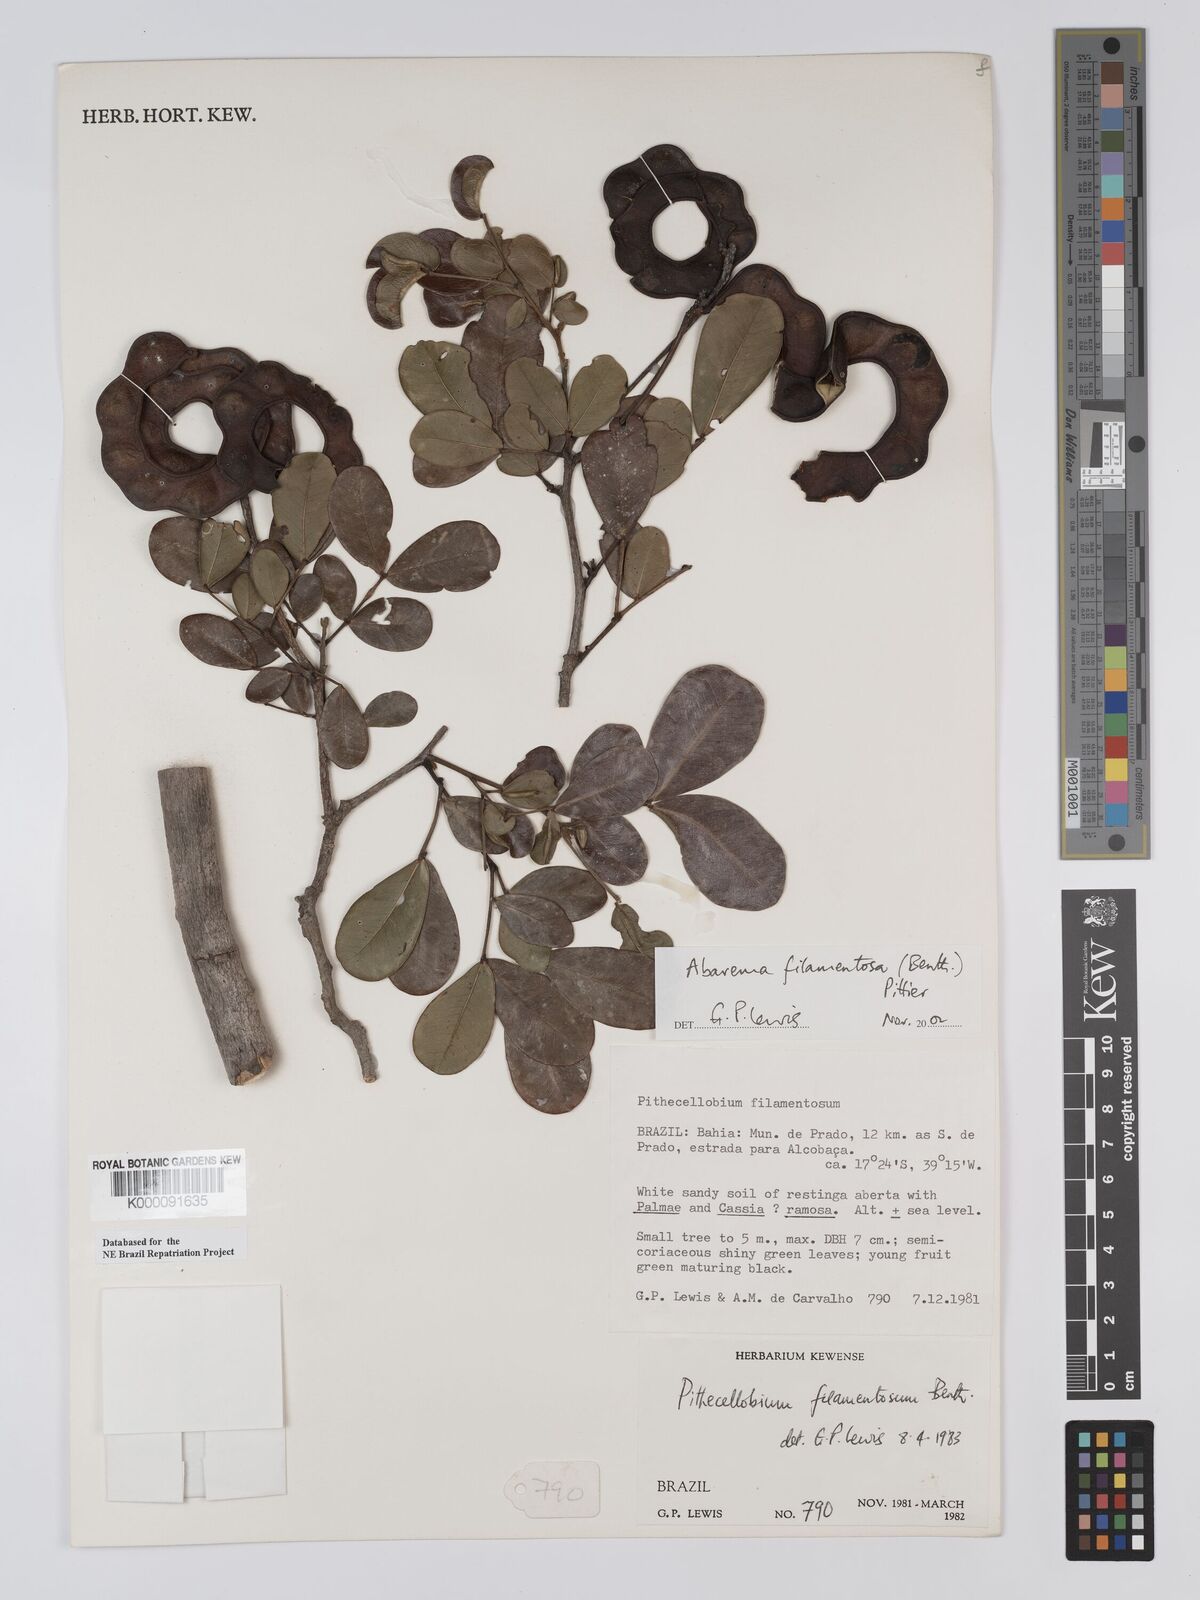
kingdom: Plantae
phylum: Tracheophyta
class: Magnoliopsida
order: Fabales
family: Fabaceae
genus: Jupunba
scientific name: Jupunba filamentosa
